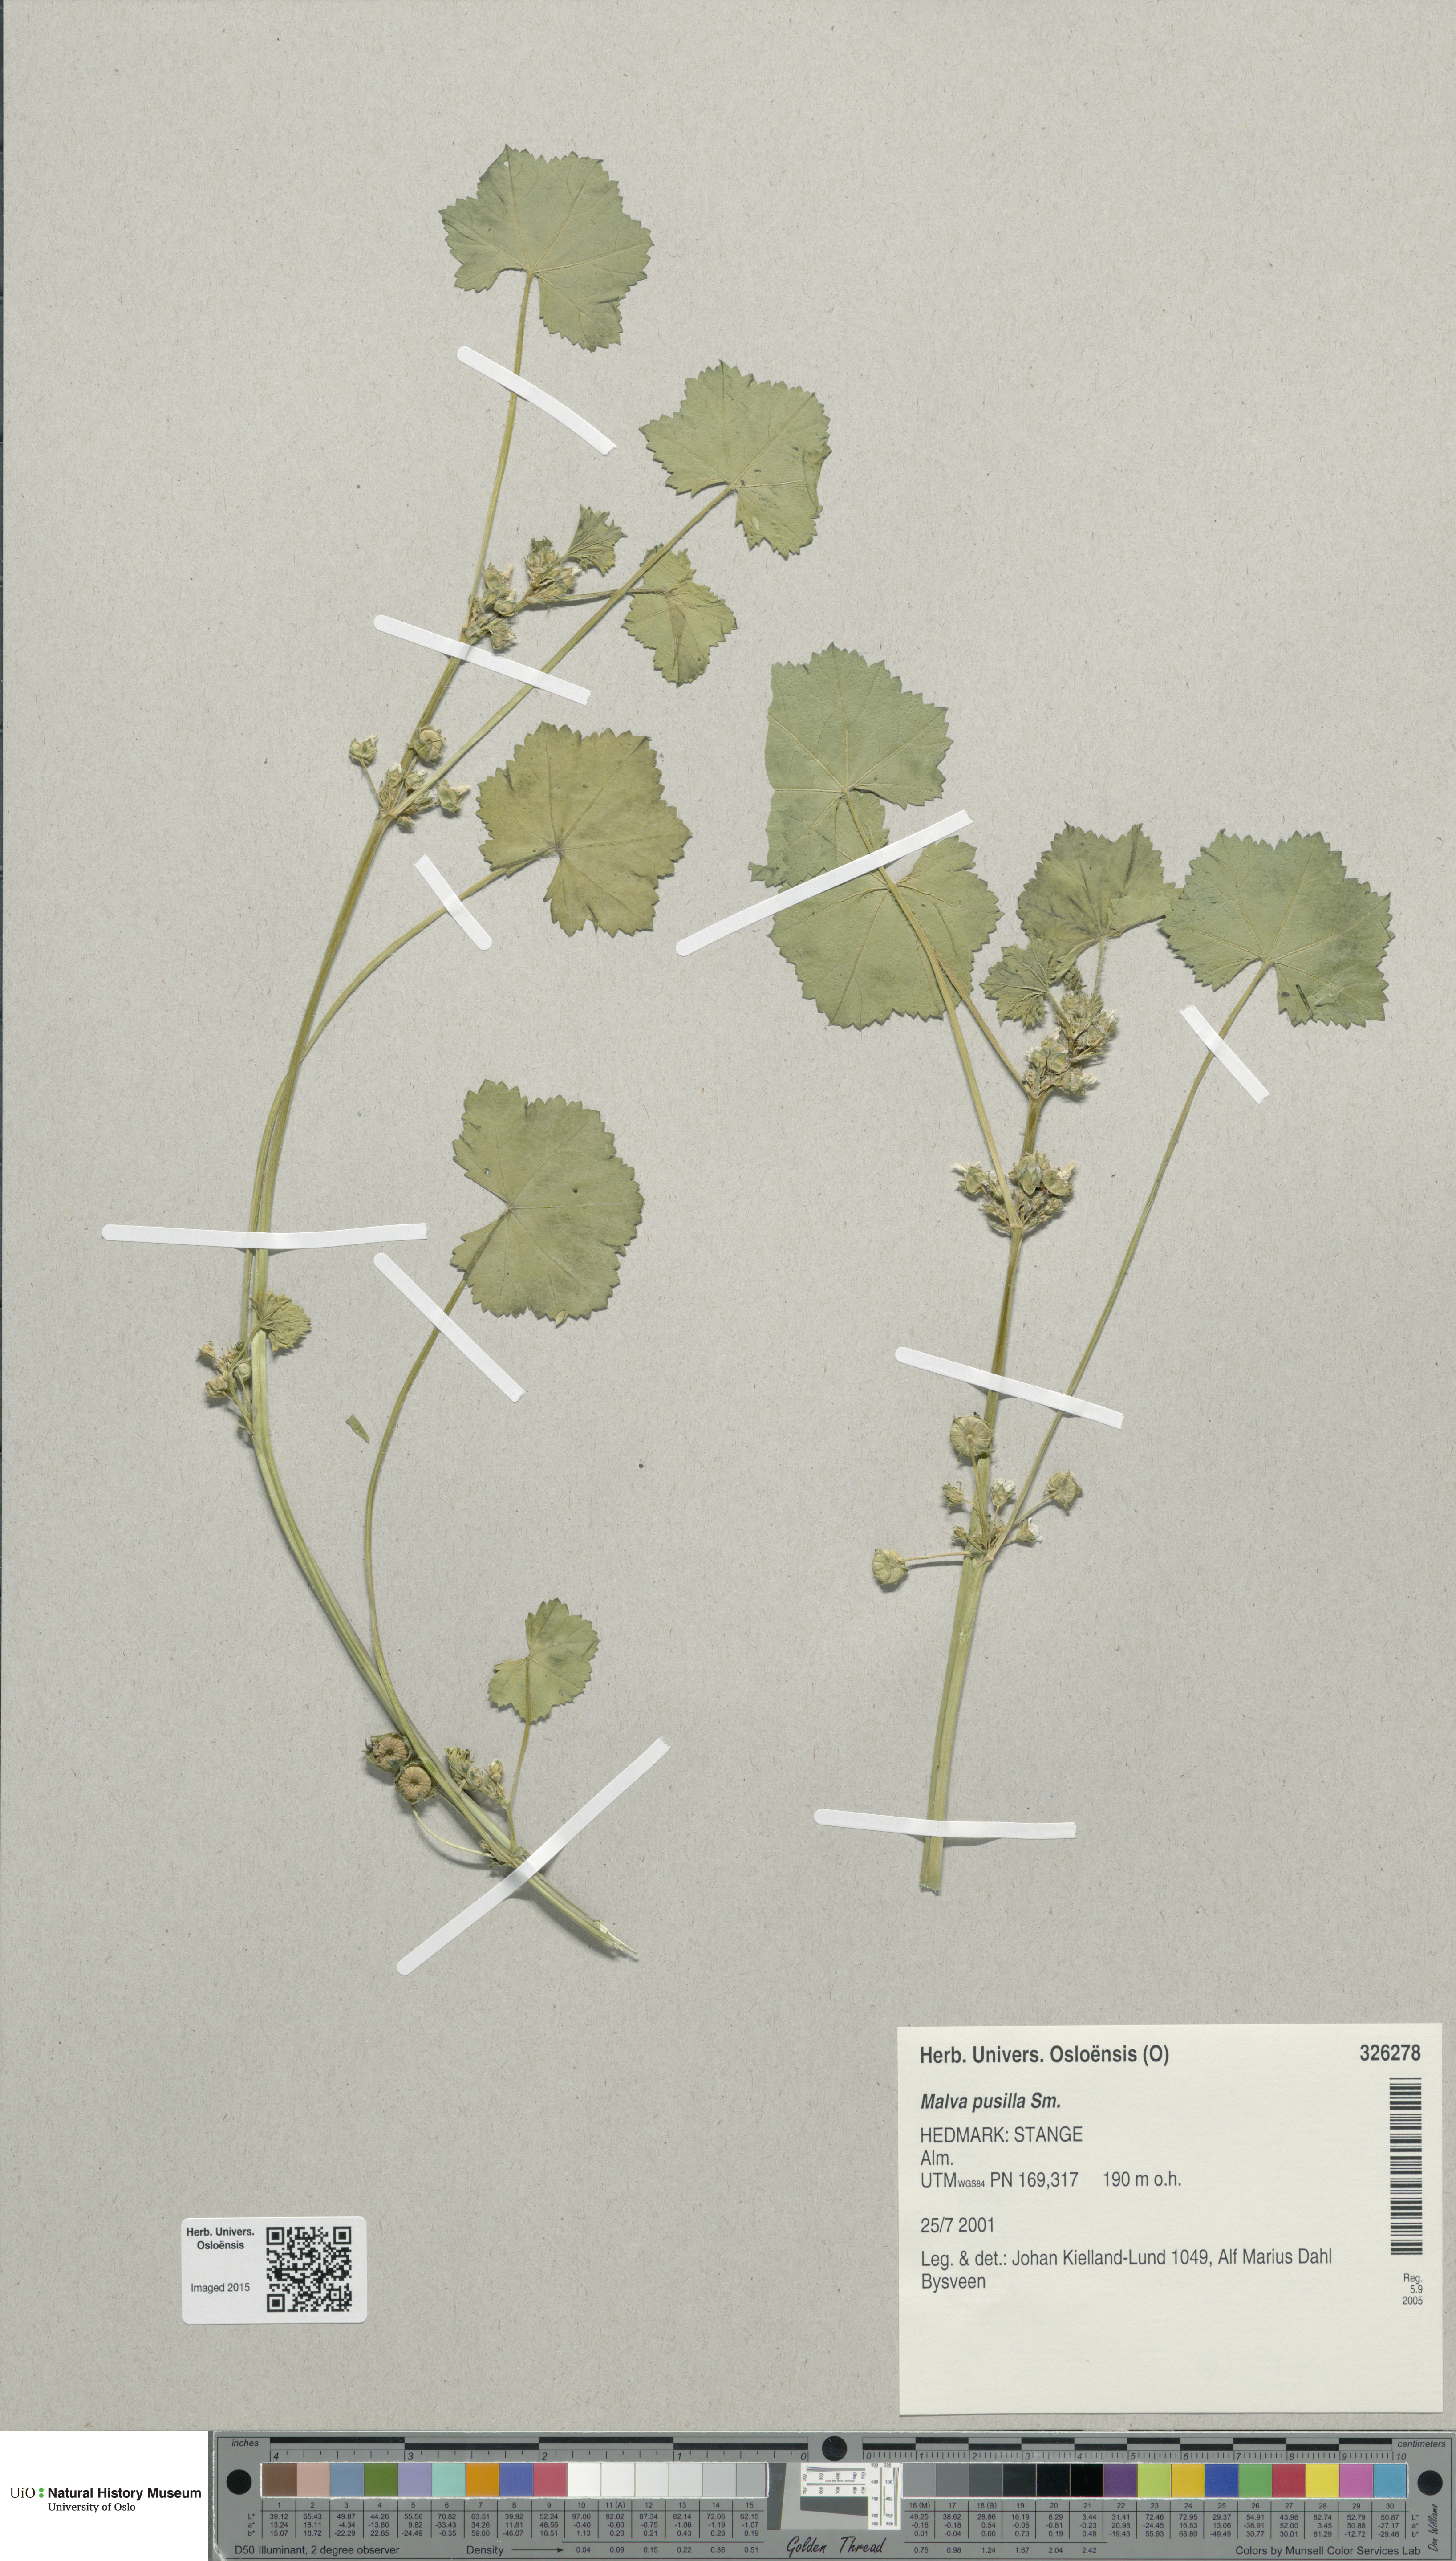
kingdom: Plantae
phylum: Tracheophyta
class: Magnoliopsida
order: Malvales
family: Malvaceae
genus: Malva
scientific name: Malva pusilla
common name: Small mallow
